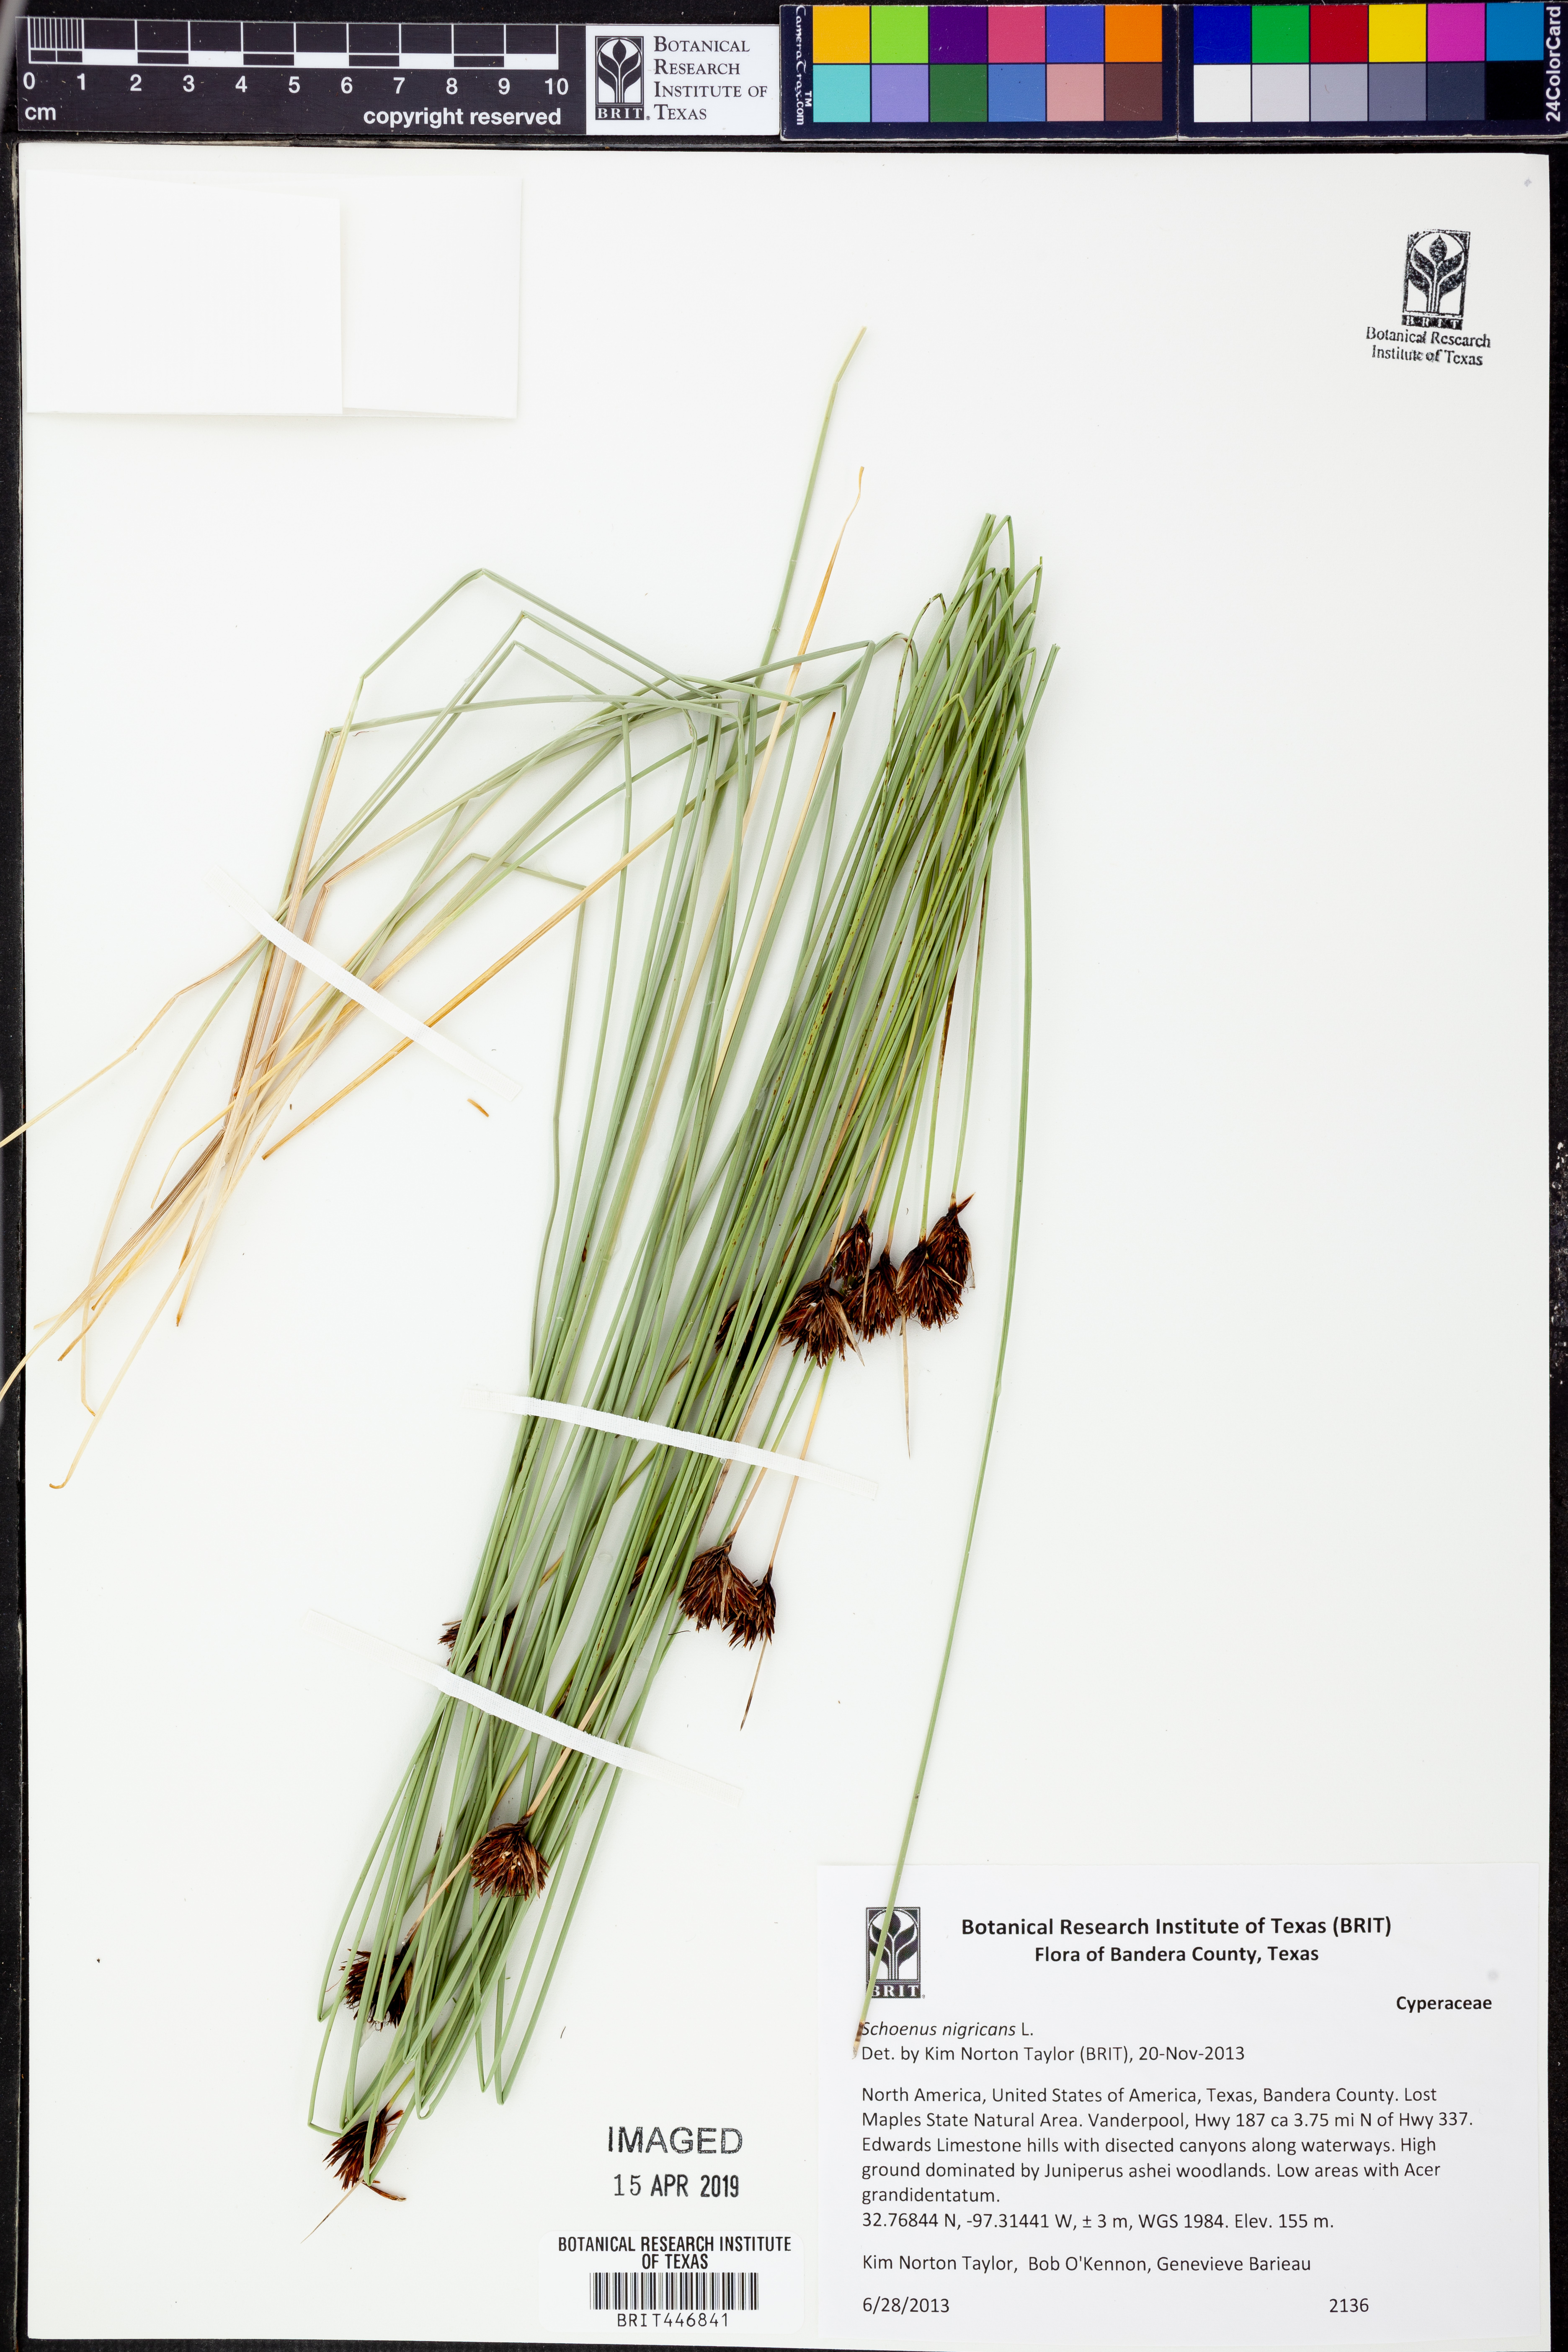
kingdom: Plantae
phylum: Tracheophyta
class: Liliopsida
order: Poales
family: Cyperaceae
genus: Schoenus
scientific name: Schoenus nigricans
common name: Black bog-rush
